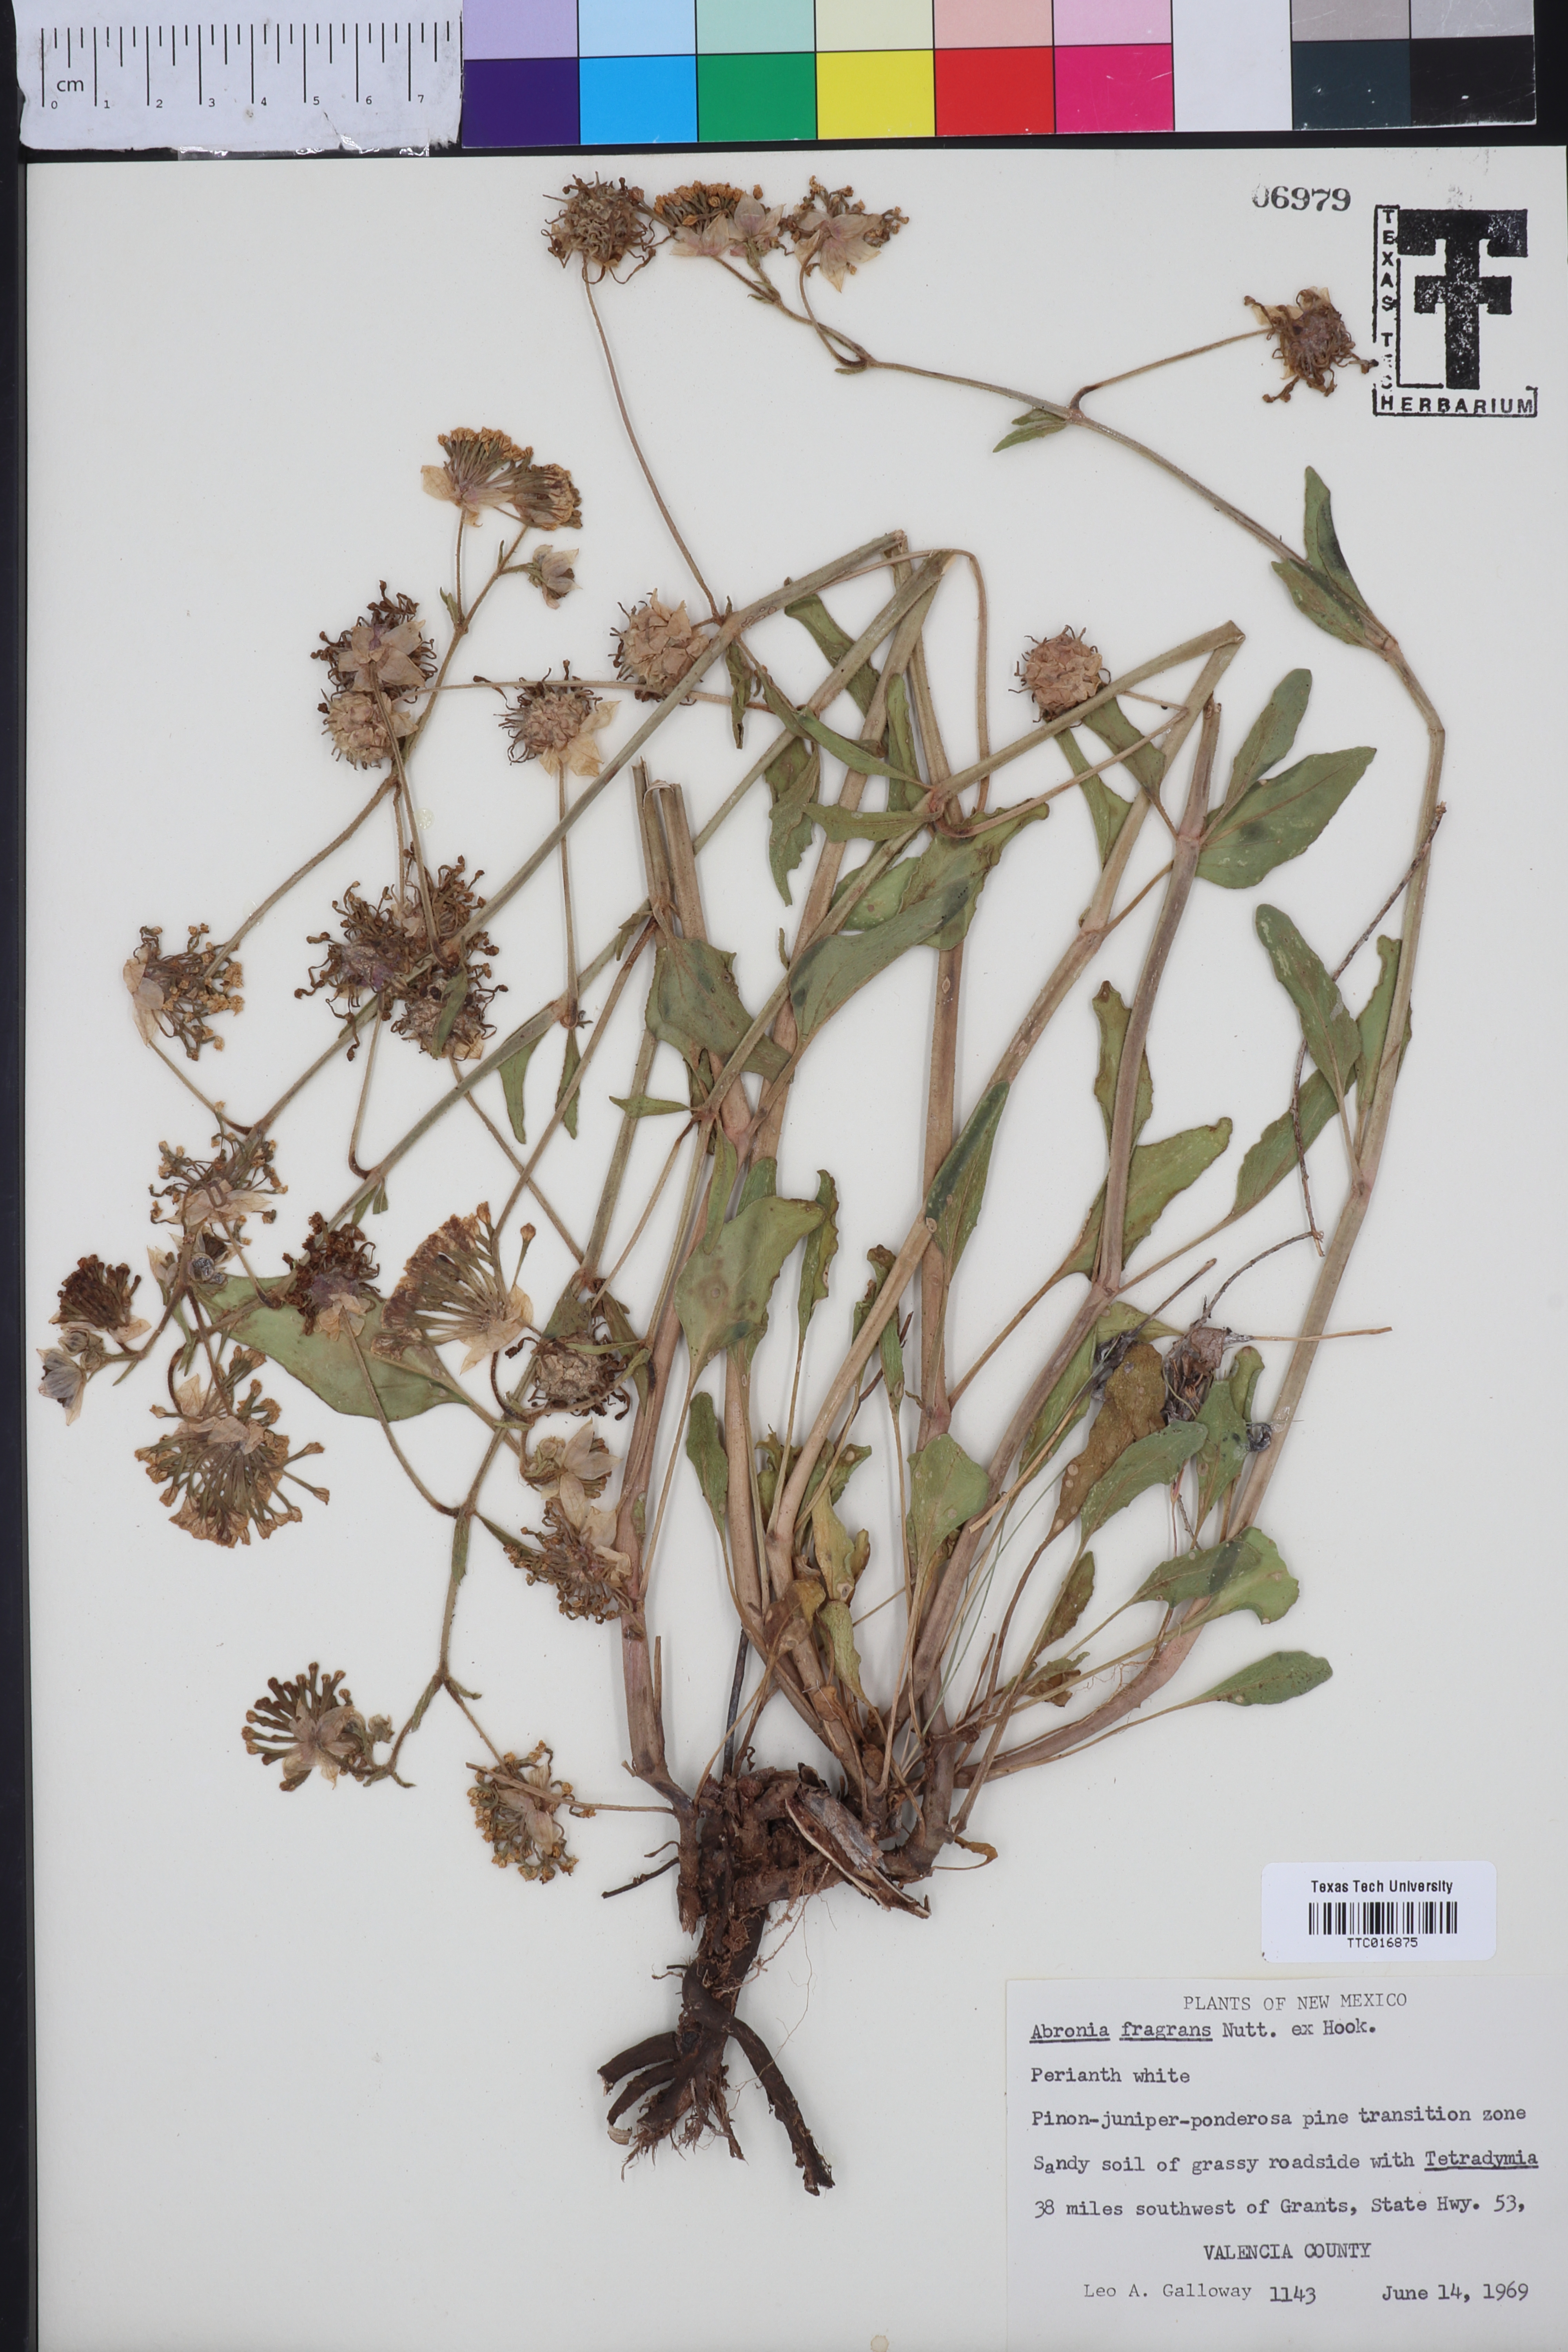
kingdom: Plantae
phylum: Tracheophyta
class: Magnoliopsida
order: Caryophyllales
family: Nyctaginaceae
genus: Abronia
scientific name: Abronia fragrans
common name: Fragrant sand-verbena
